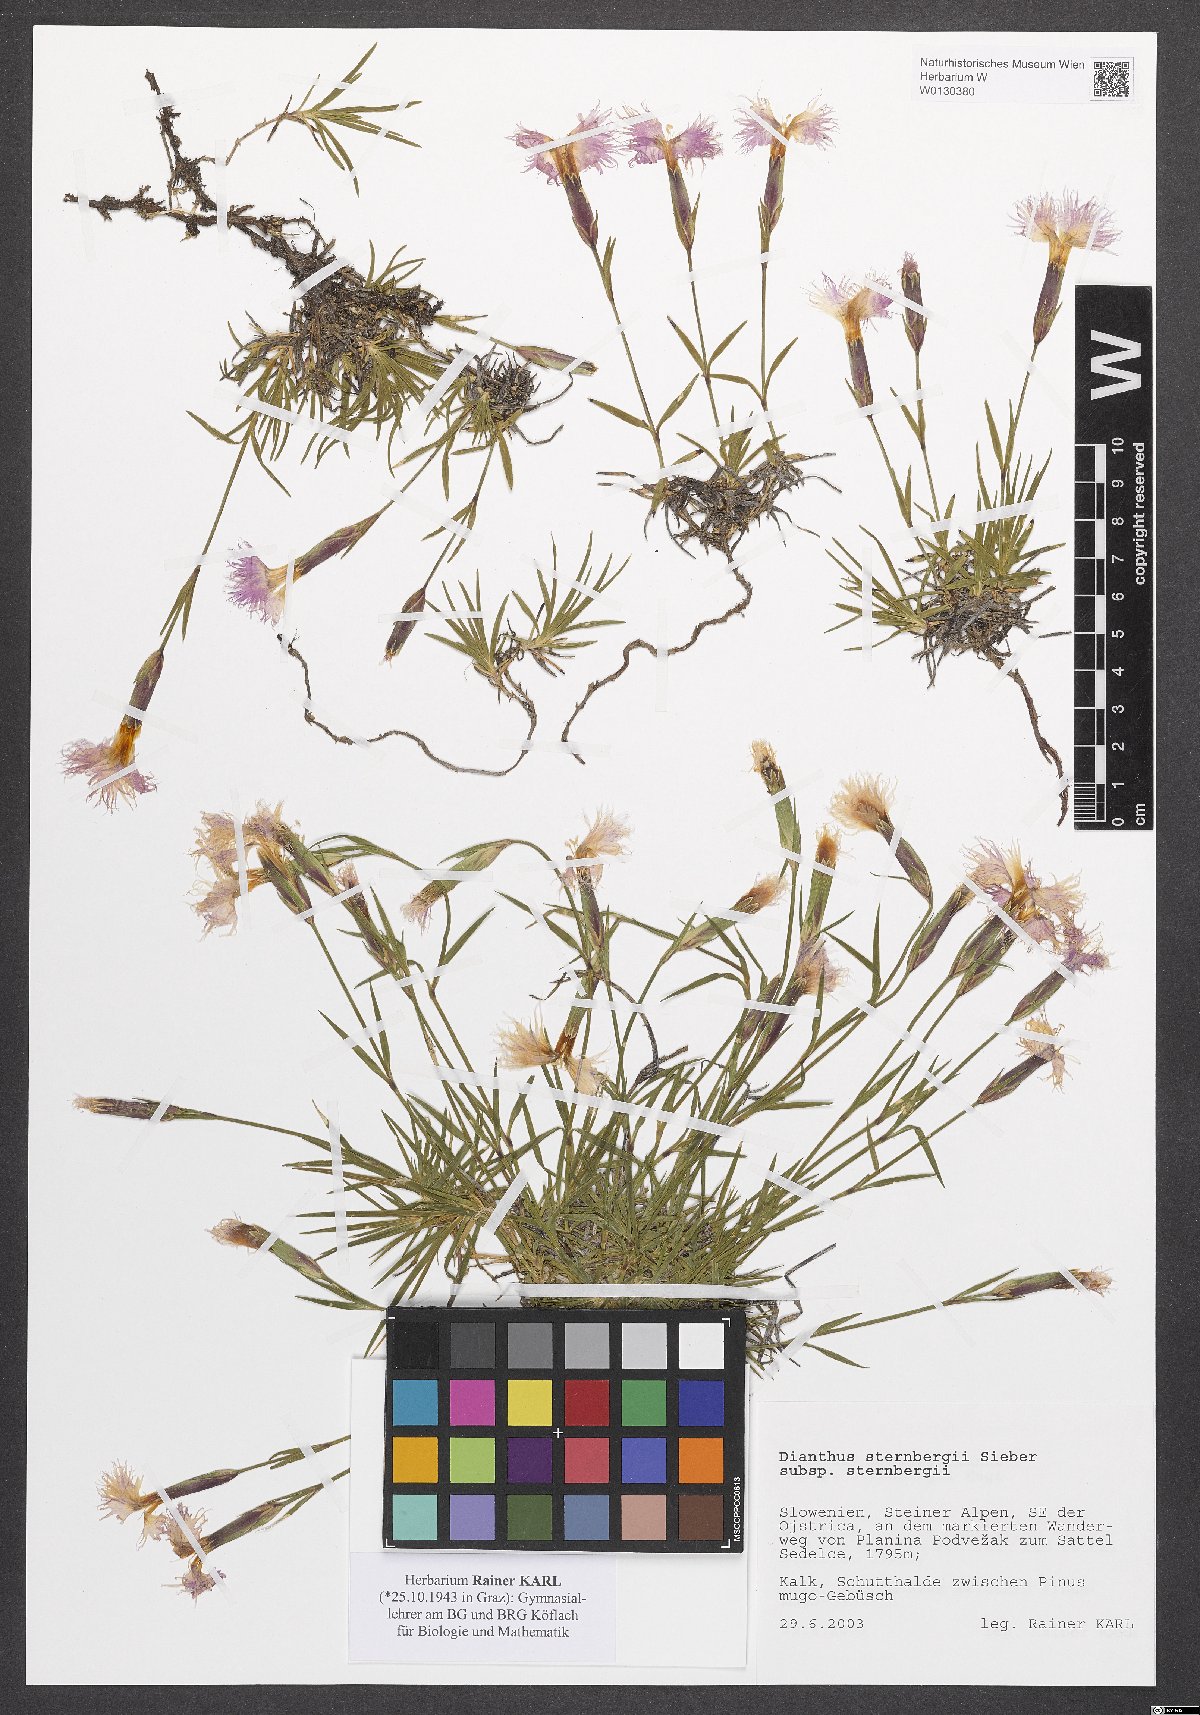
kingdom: Plantae
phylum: Tracheophyta
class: Magnoliopsida
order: Caryophyllales
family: Caryophyllaceae
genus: Dianthus
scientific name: Dianthus sternbergii
